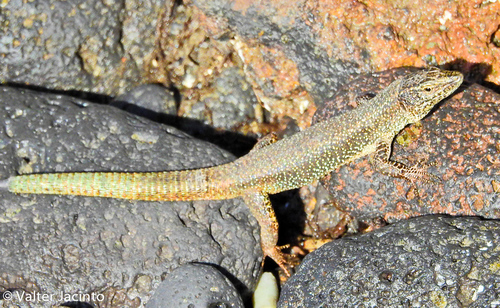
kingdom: Animalia
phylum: Chordata
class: Squamata
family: Lacertidae
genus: Teira
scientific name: Teira dugesii
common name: Madeira lizard
